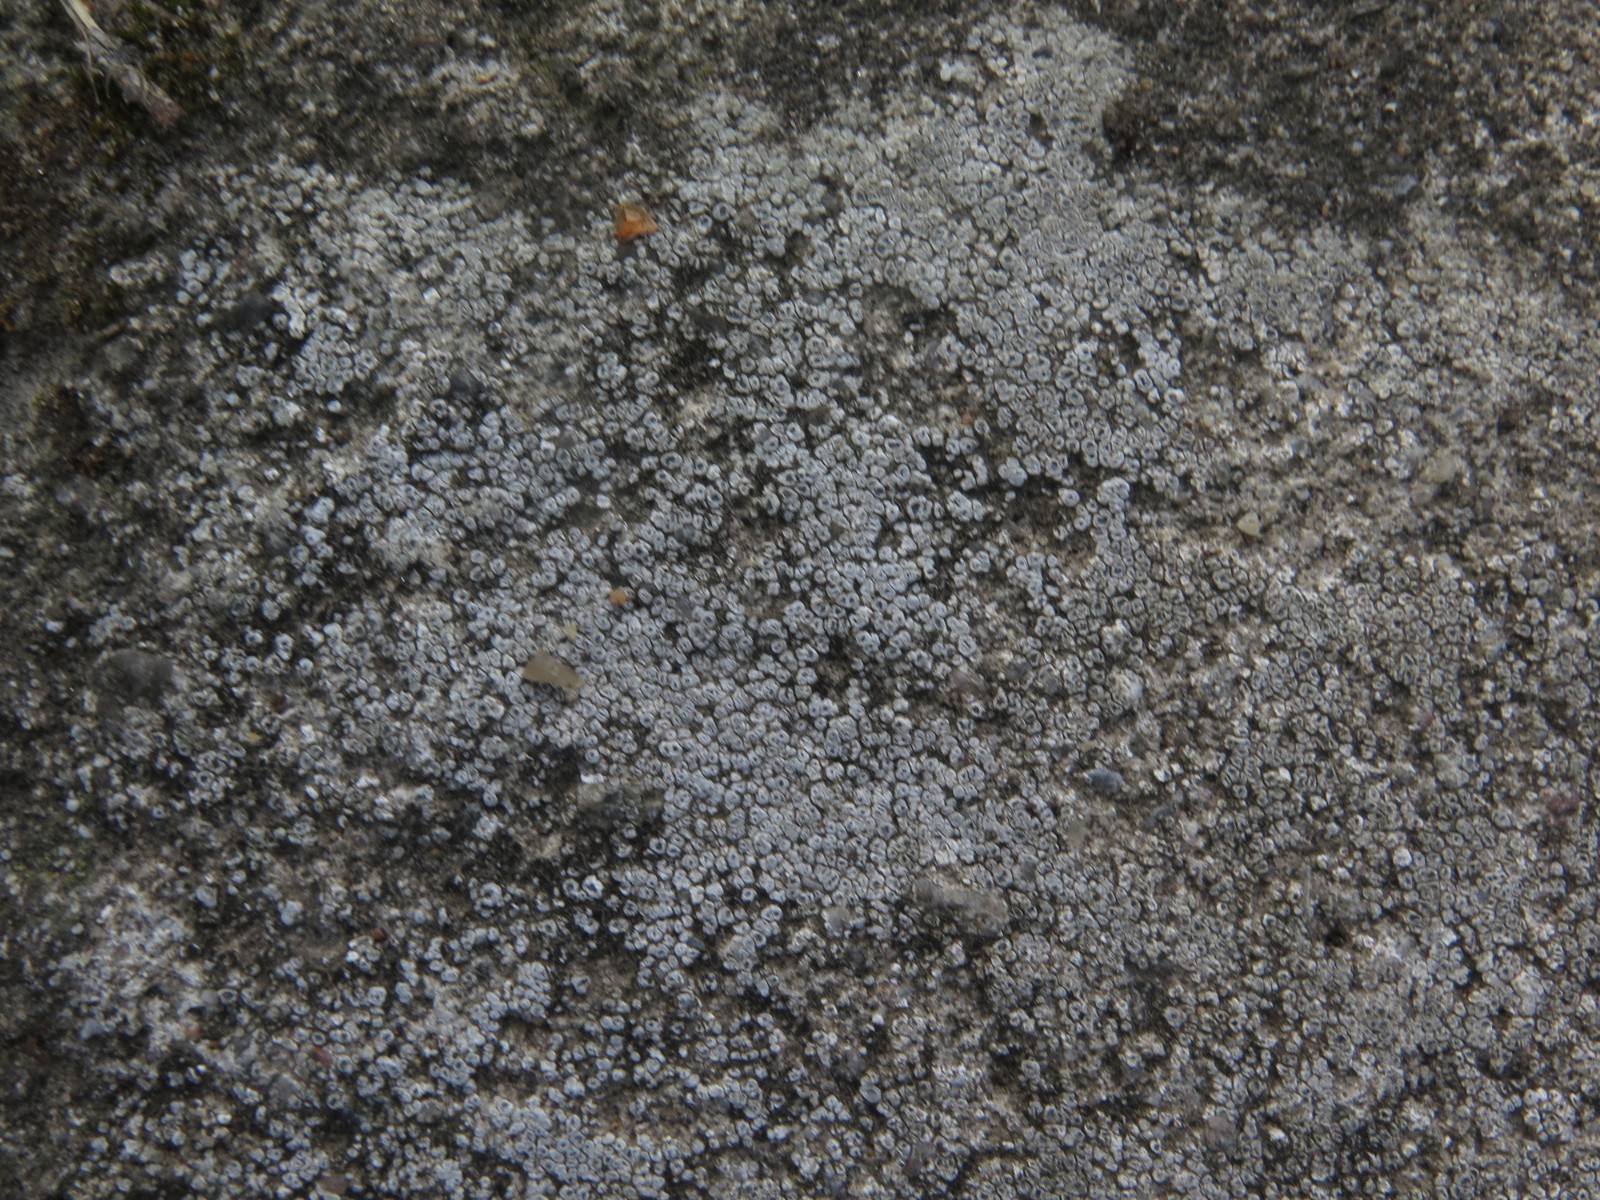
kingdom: Fungi
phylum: Ascomycota
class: Lecanoromycetes
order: Pertusariales
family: Megasporaceae
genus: Circinaria
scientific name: Circinaria contorta
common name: indviklet hulskivelav
